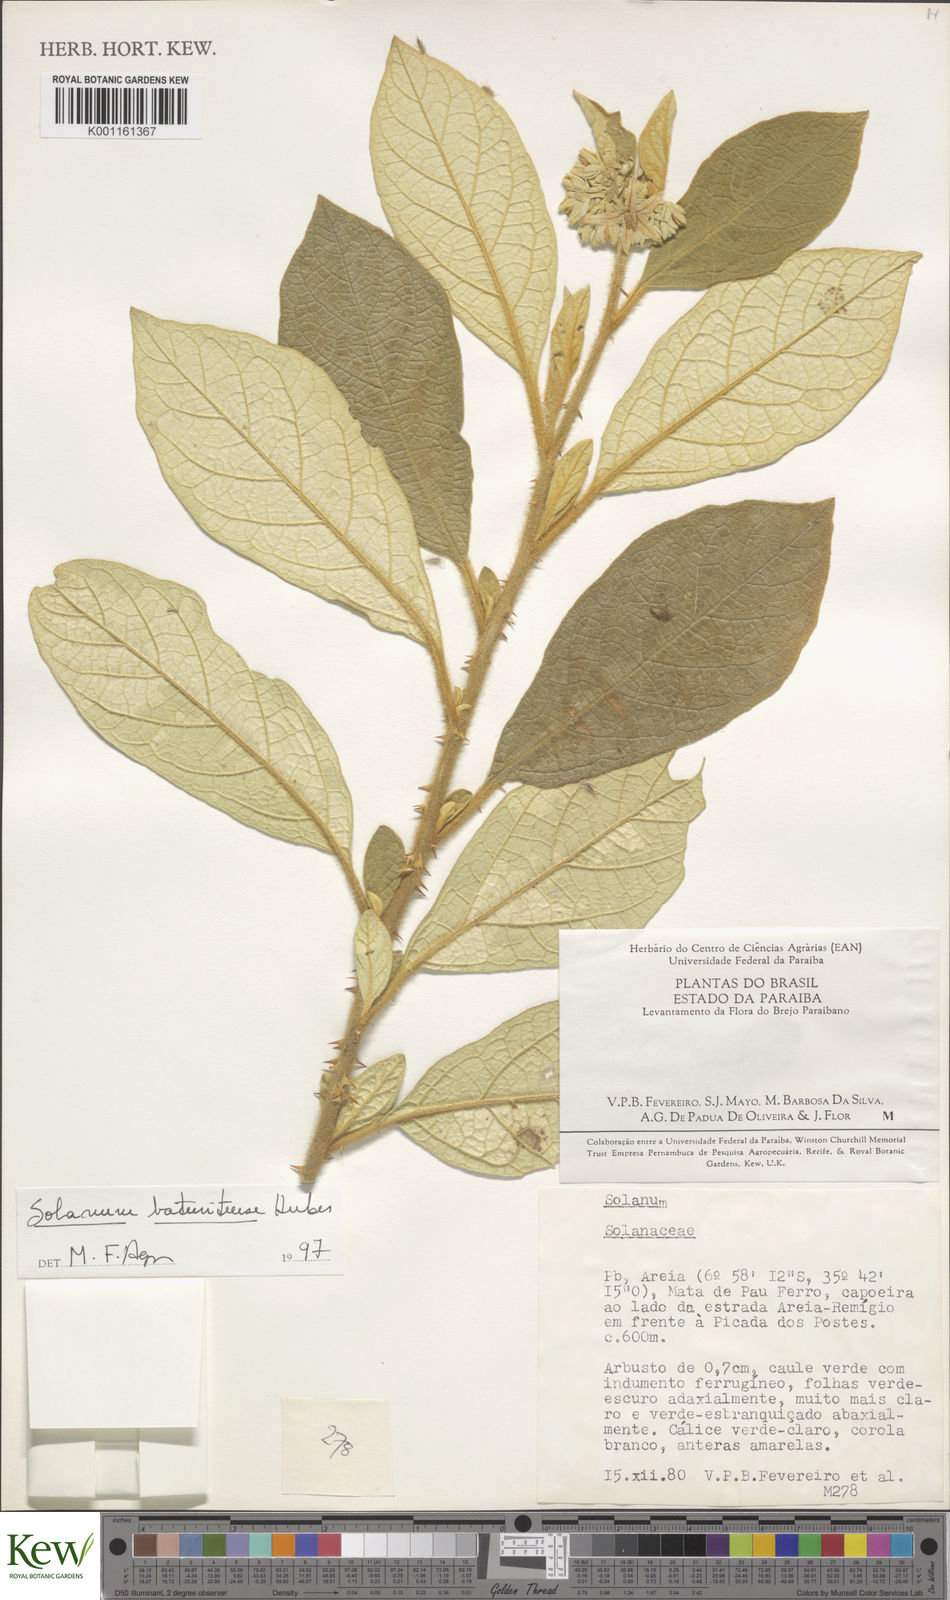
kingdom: Plantae
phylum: Tracheophyta
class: Magnoliopsida
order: Solanales
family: Solanaceae
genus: Solanum
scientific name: Solanum rhytidoandrum
